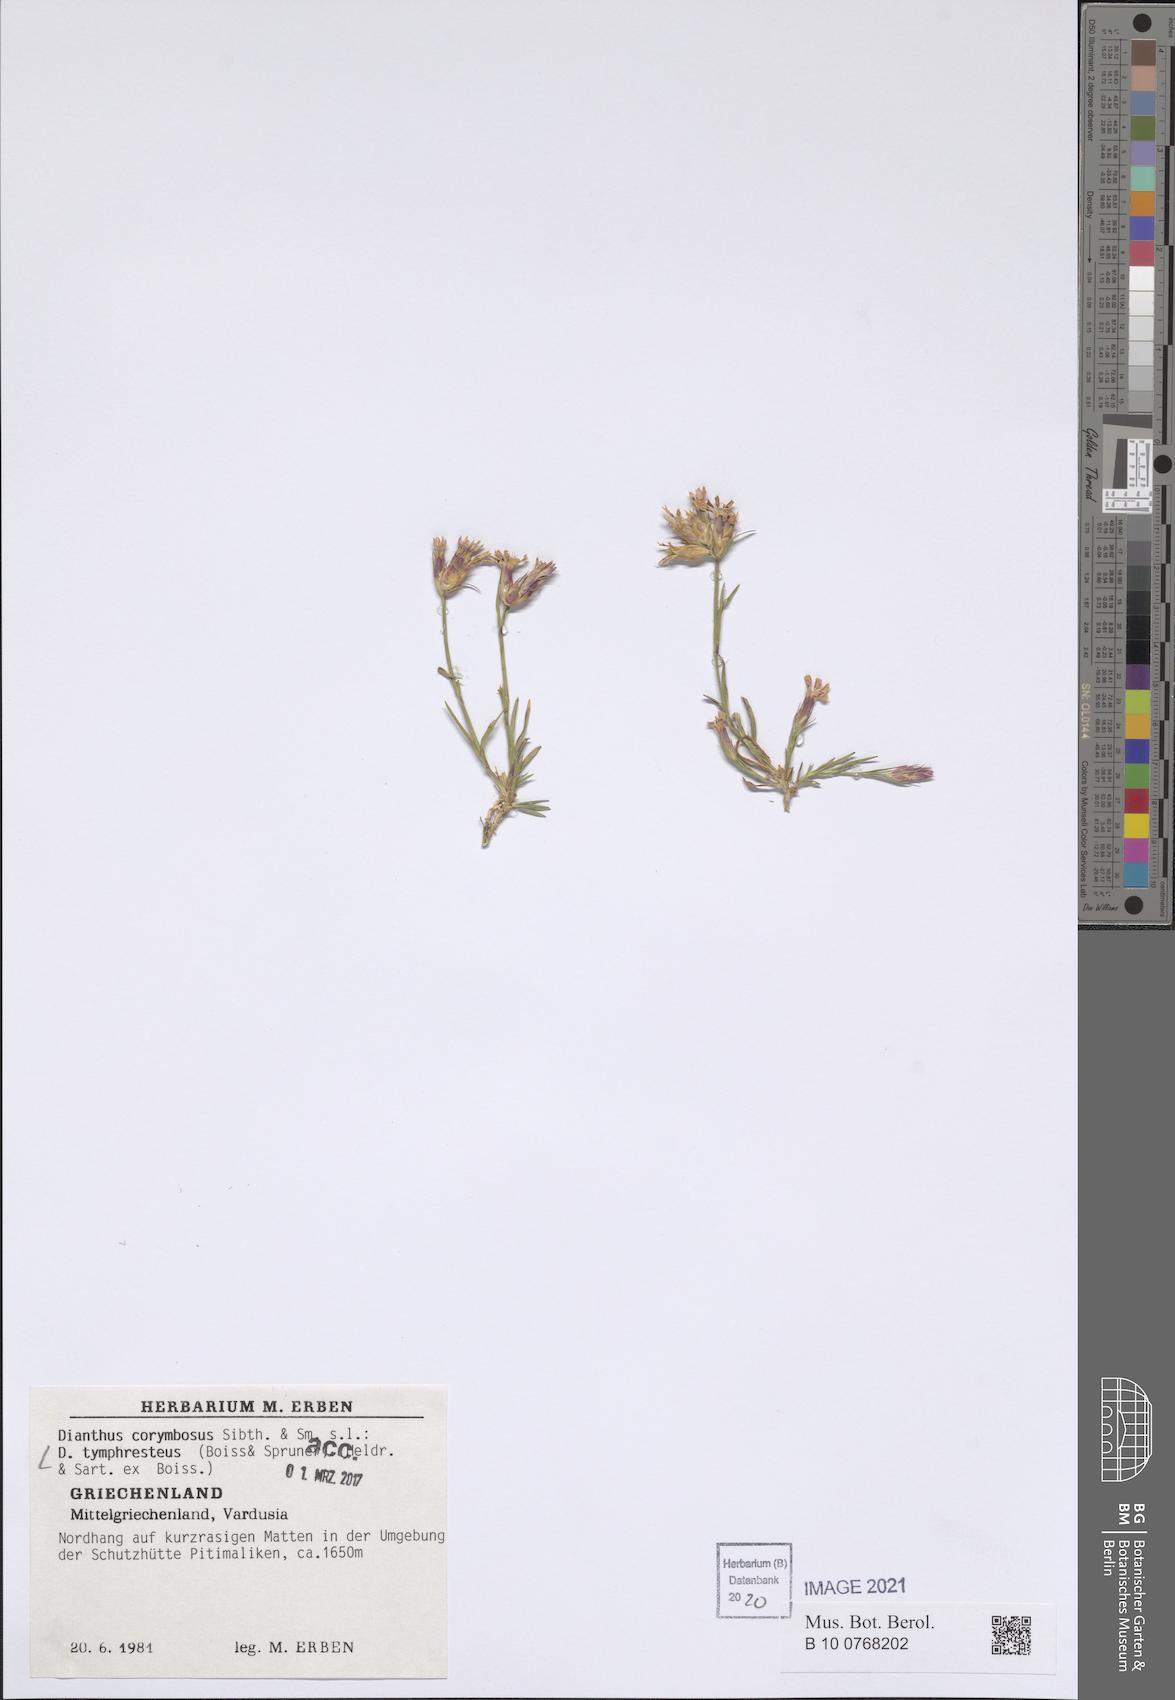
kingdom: Plantae
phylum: Tracheophyta
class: Magnoliopsida
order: Caryophyllales
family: Caryophyllaceae
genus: Dianthus
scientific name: Dianthus tymphresteus
